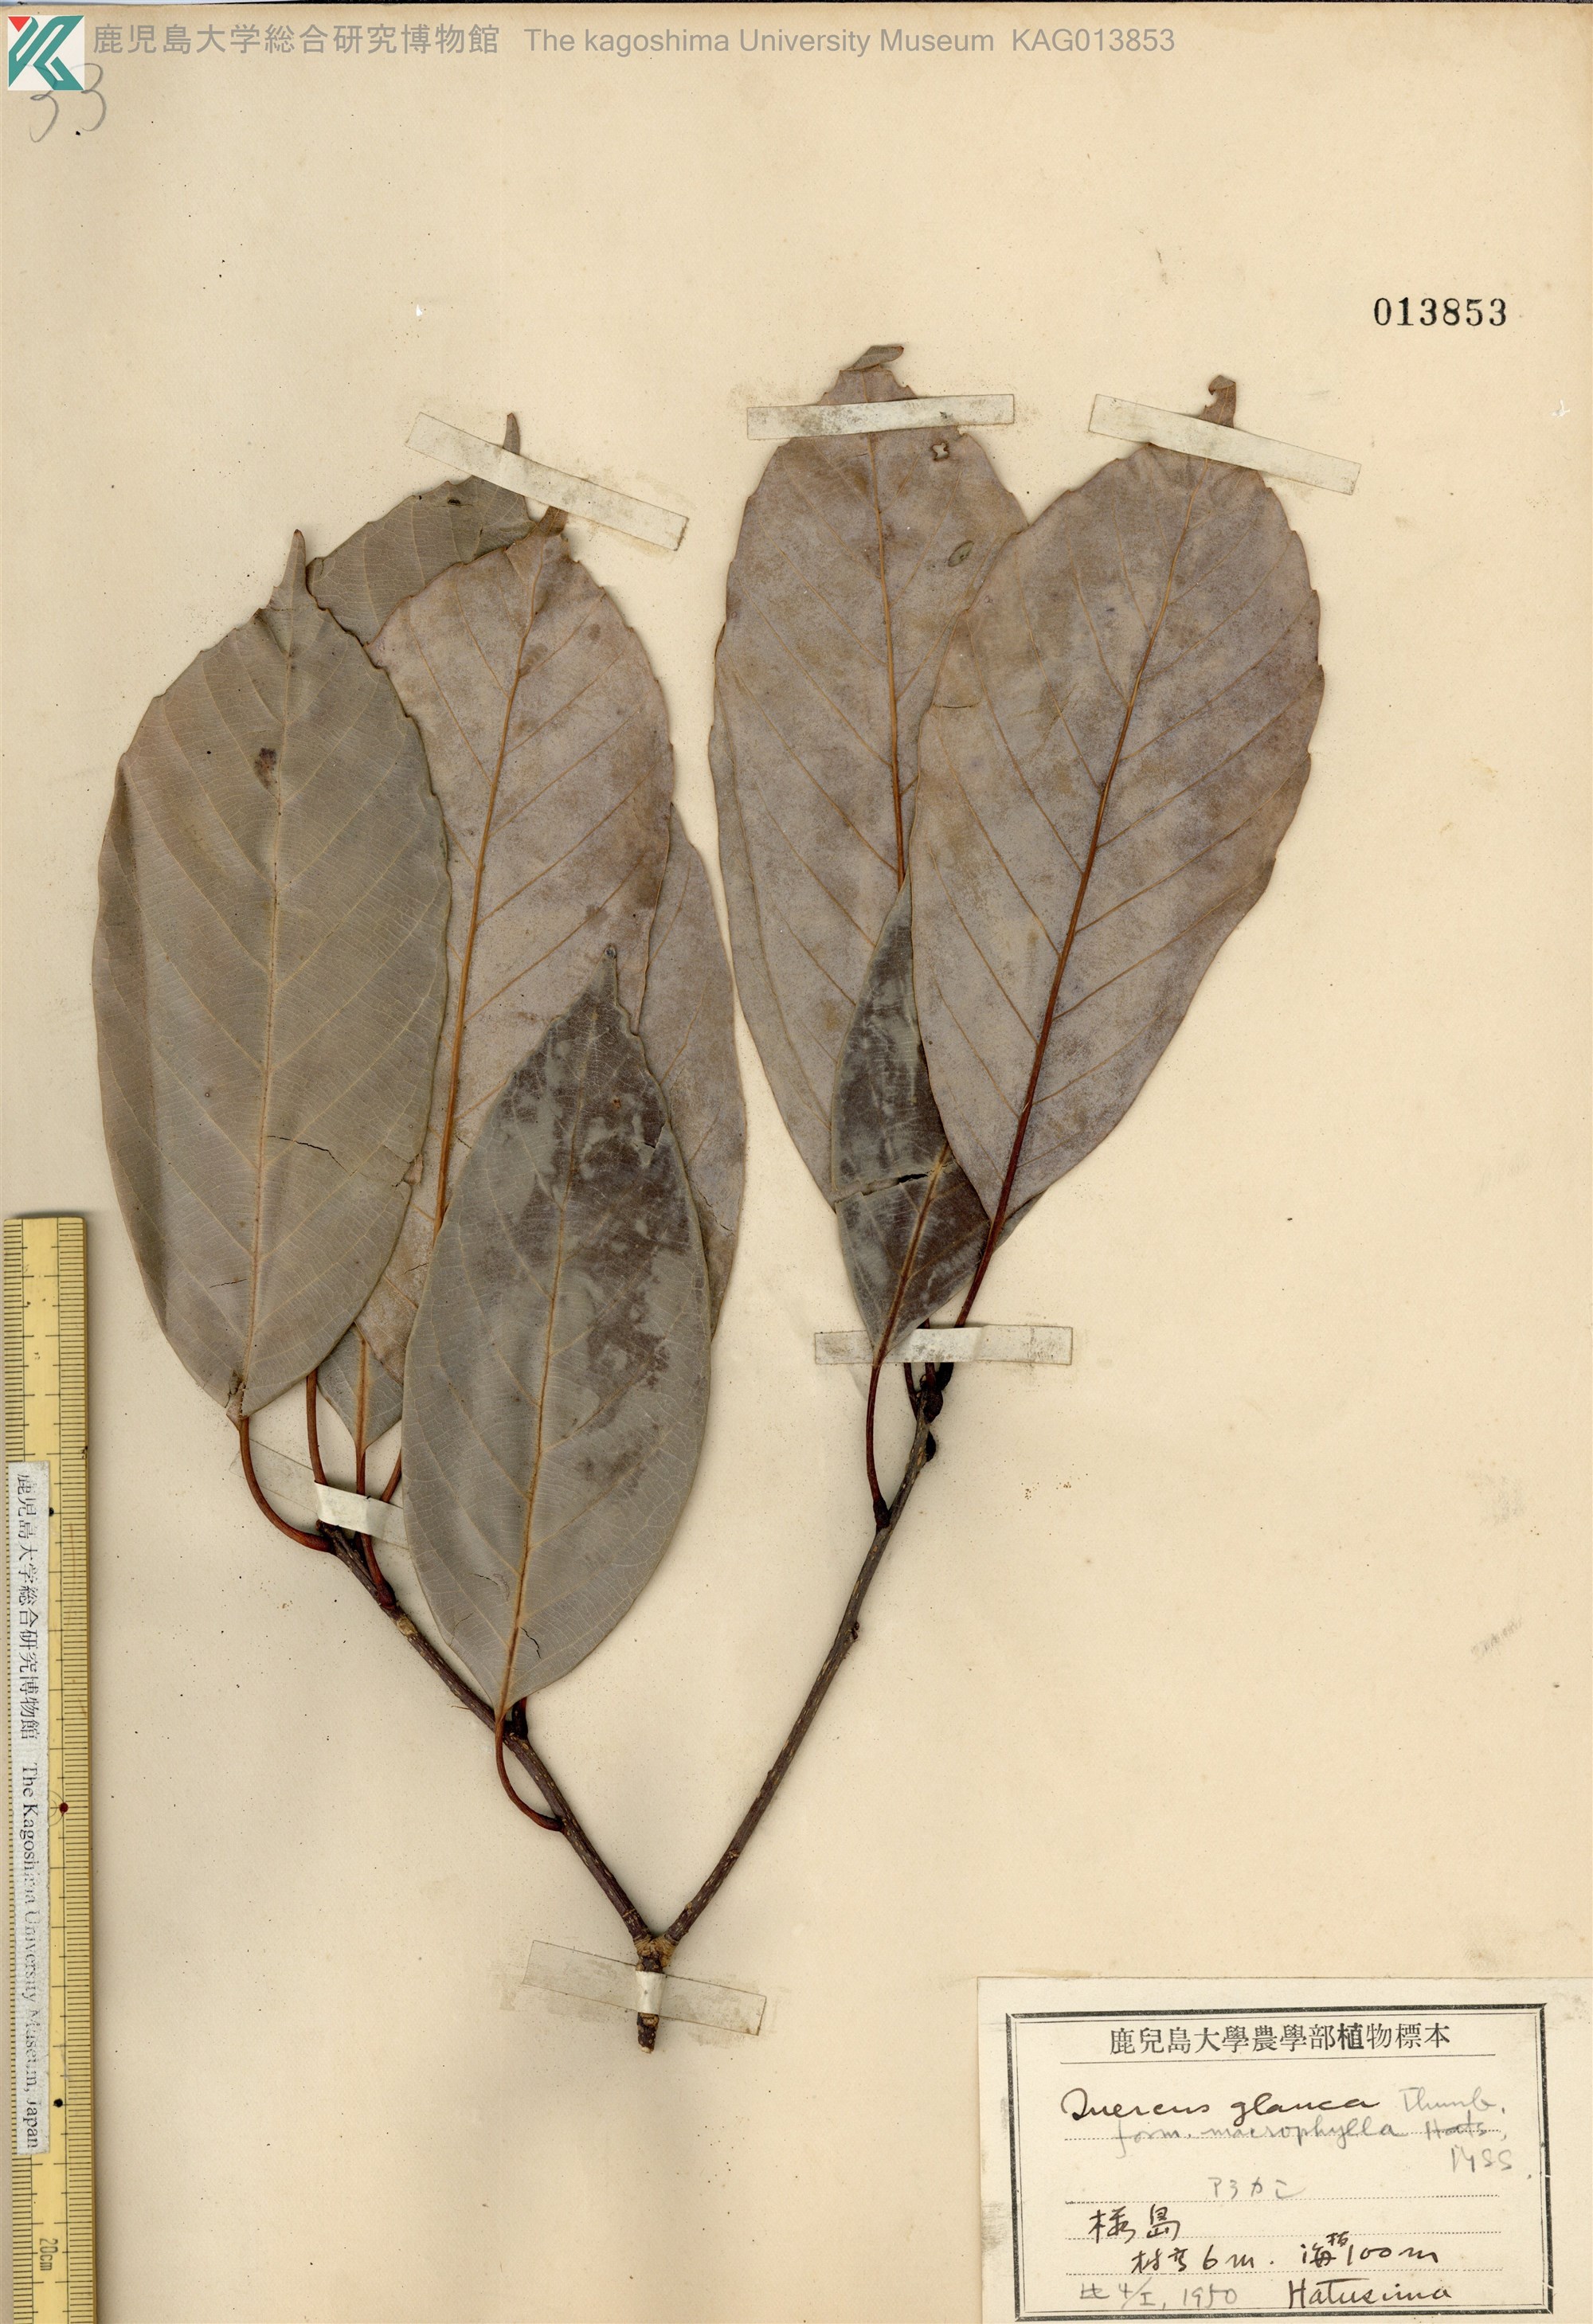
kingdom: Plantae
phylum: Tracheophyta
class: Magnoliopsida
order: Fagales
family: Fagaceae
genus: Quercus
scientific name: Quercus glauca
